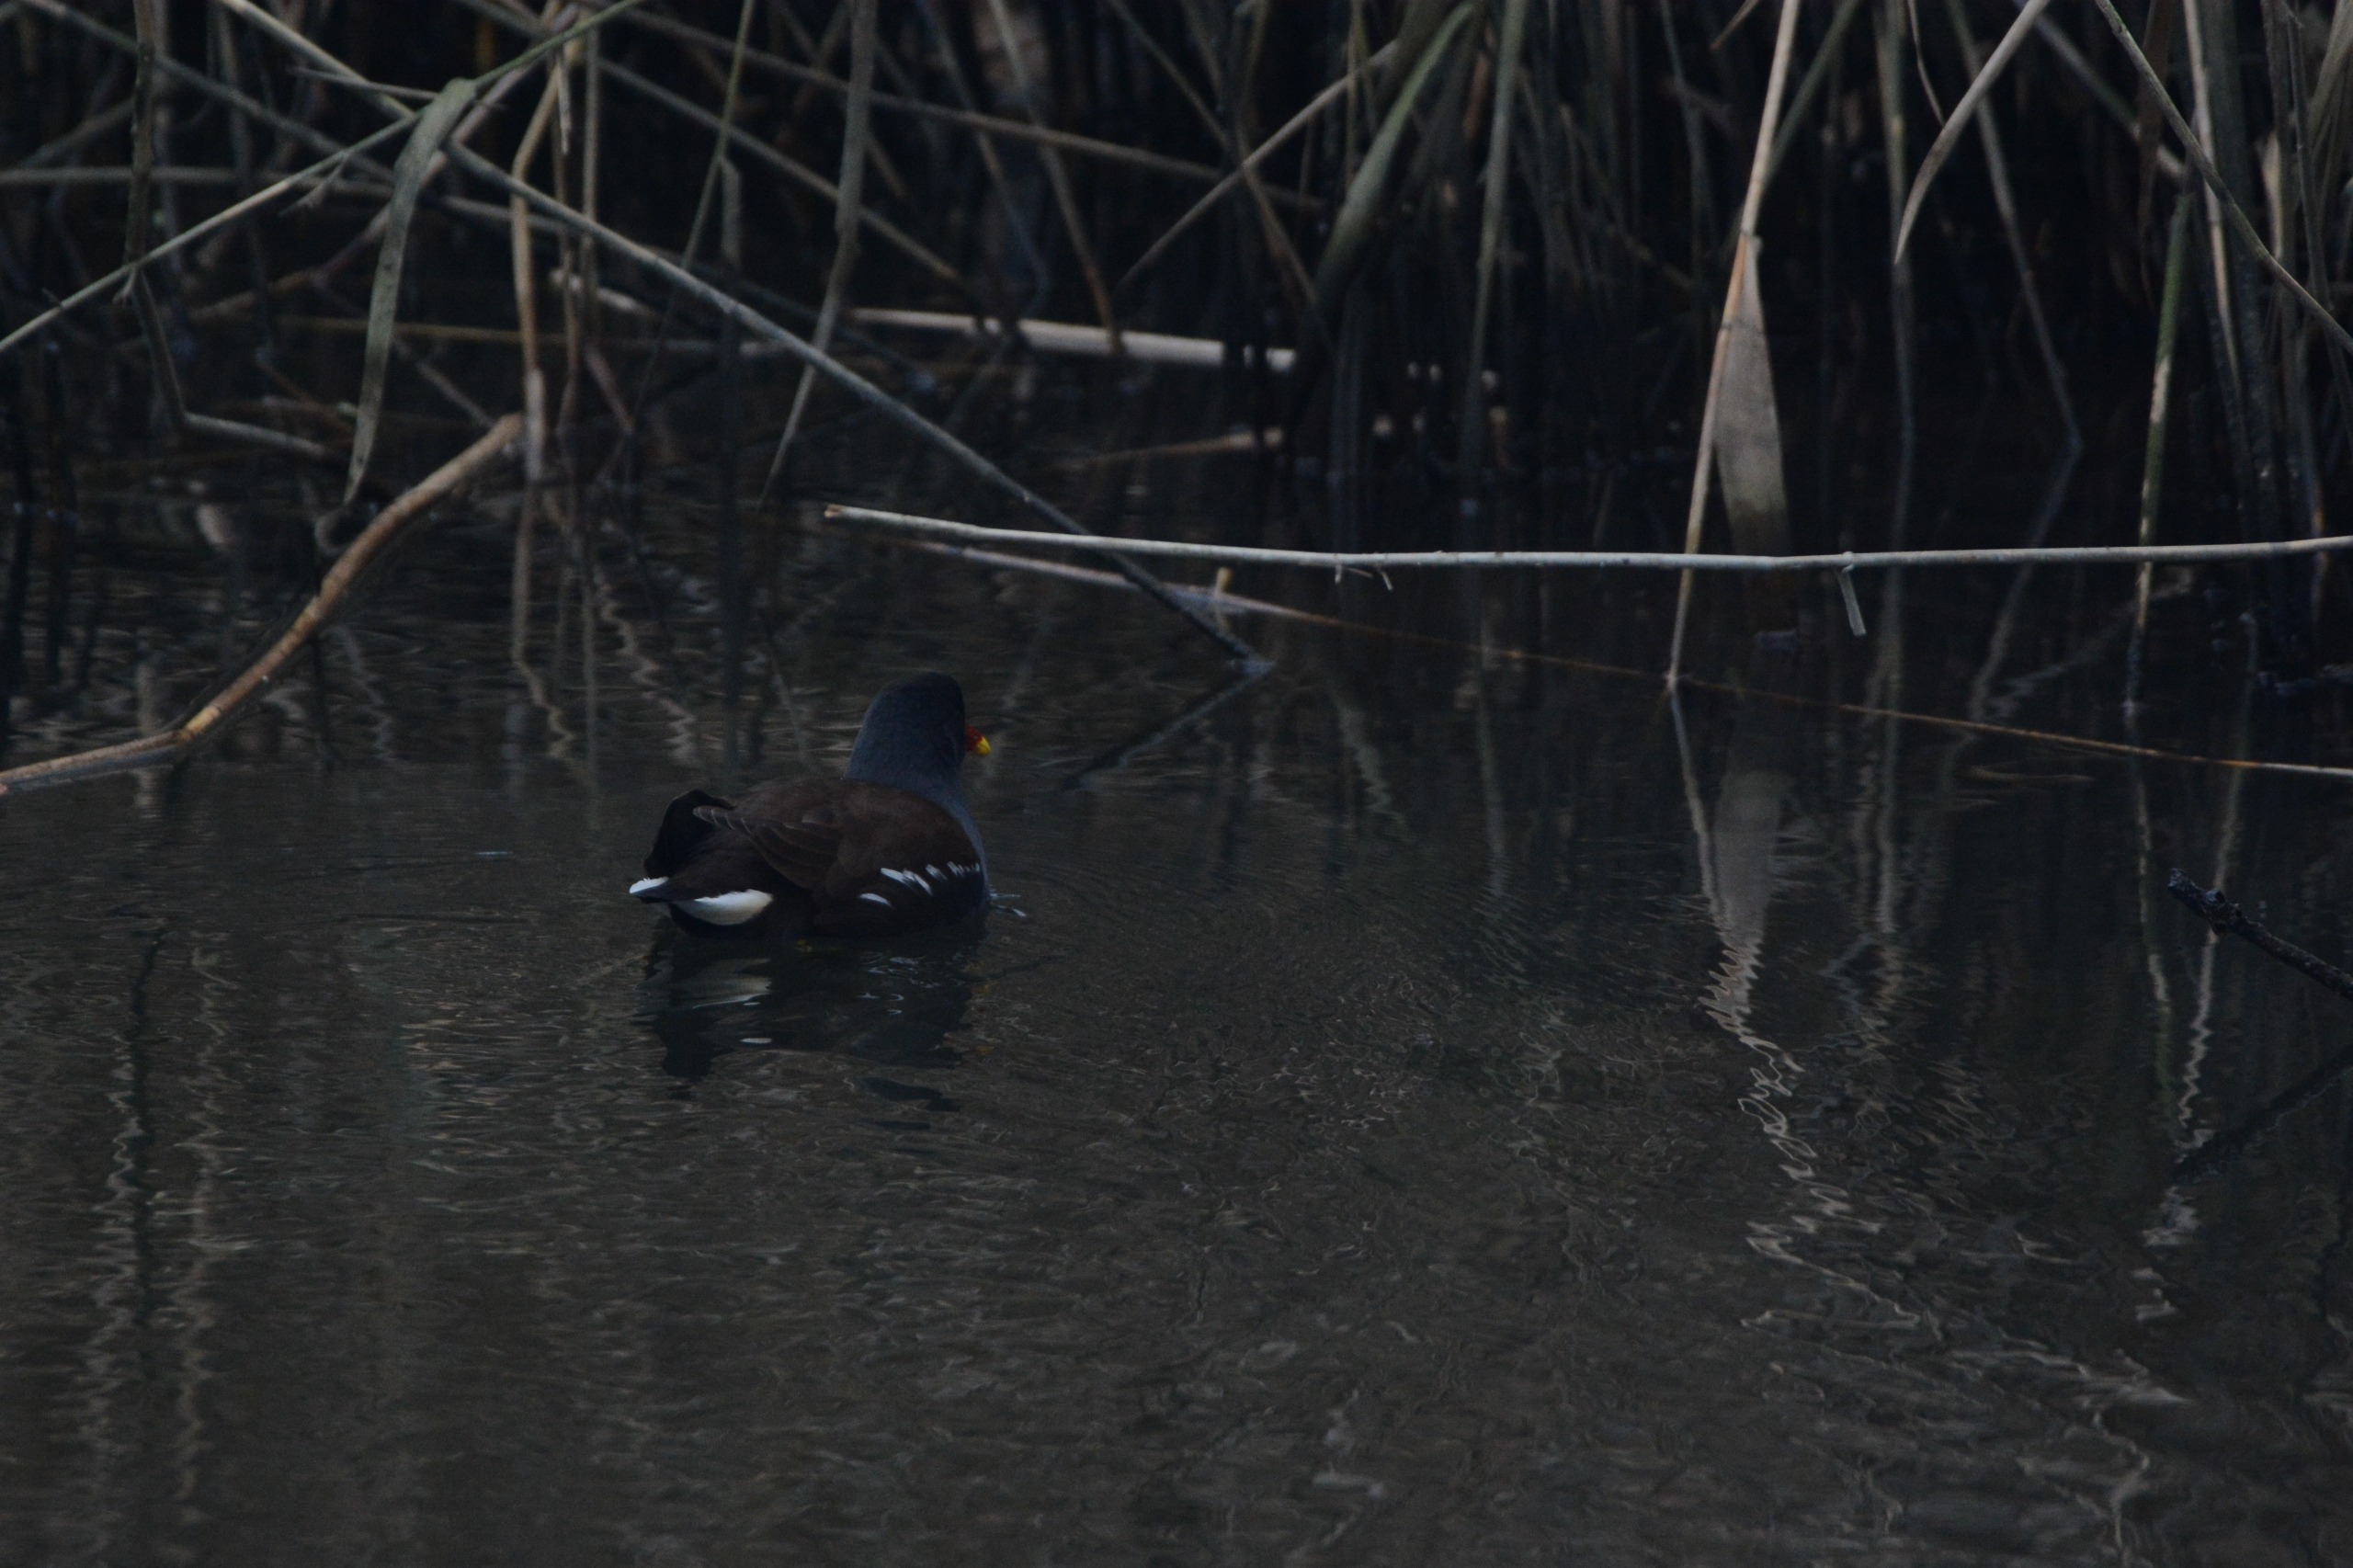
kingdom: Animalia
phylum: Chordata
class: Aves
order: Gruiformes
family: Rallidae
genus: Gallinula
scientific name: Gallinula chloropus
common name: Grønbenet rørhøne
